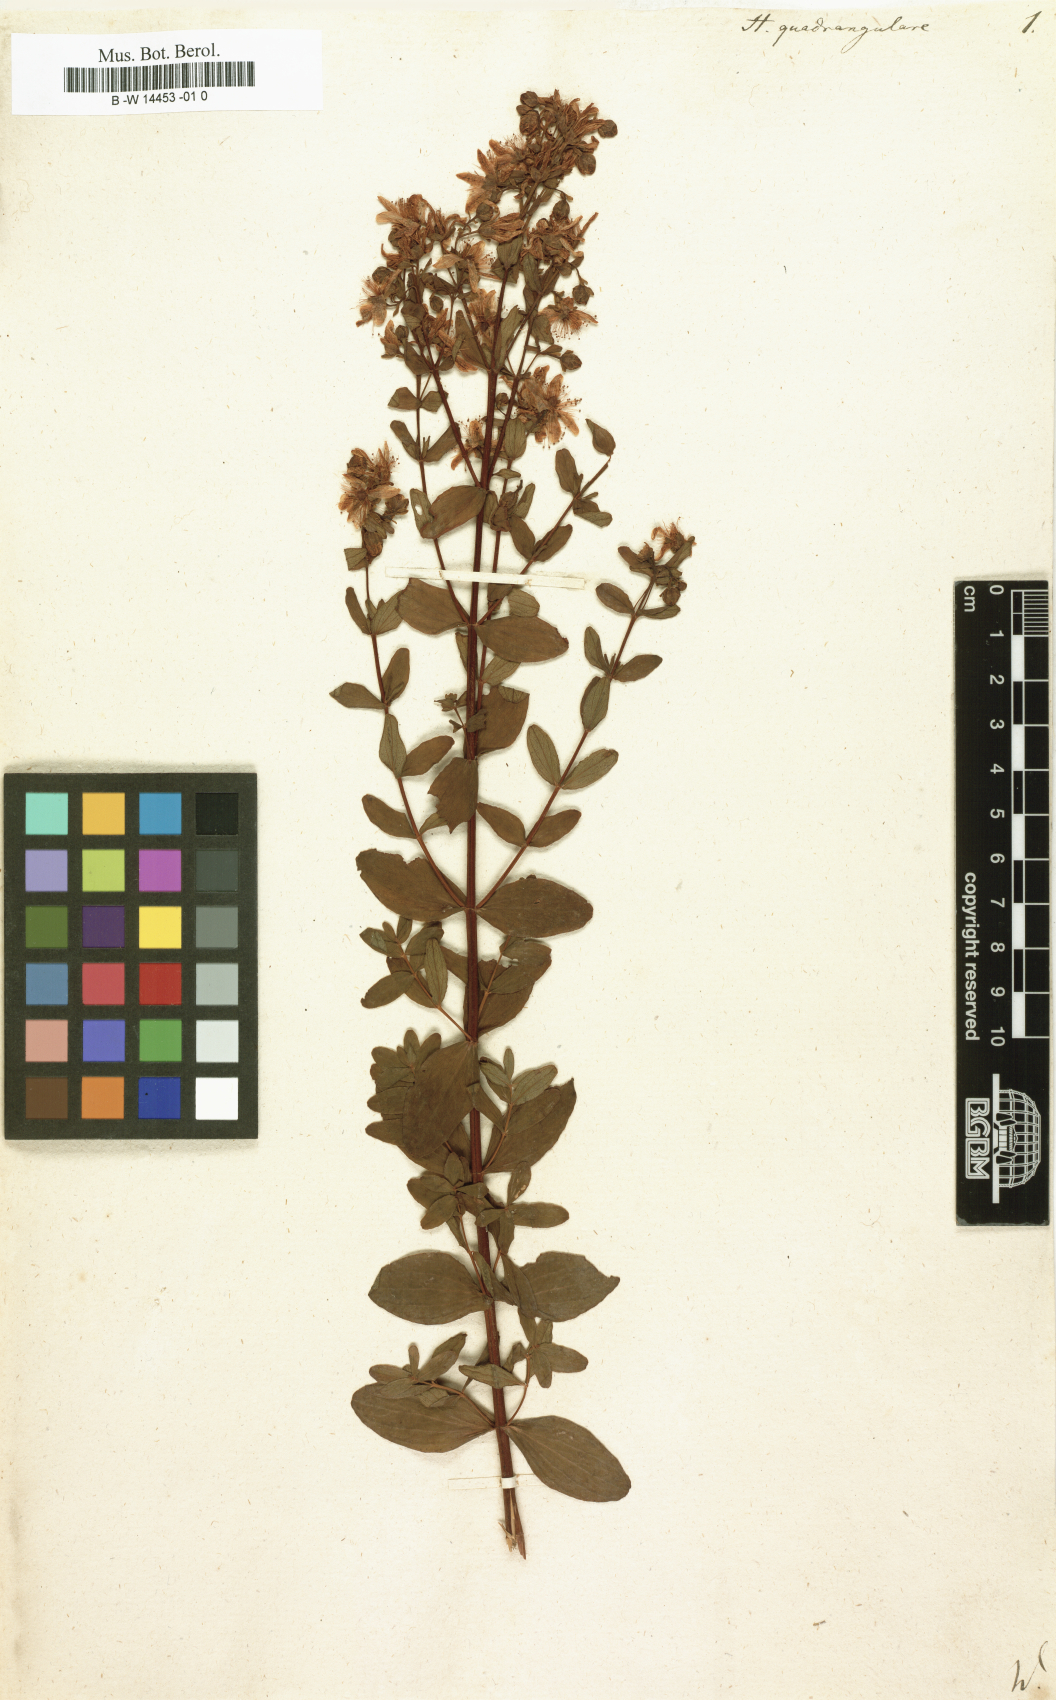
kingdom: Plantae
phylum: Tracheophyta
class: Magnoliopsida
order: Malpighiales
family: Hypericaceae
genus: Hypericum
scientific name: Hypericum quadrangulare
